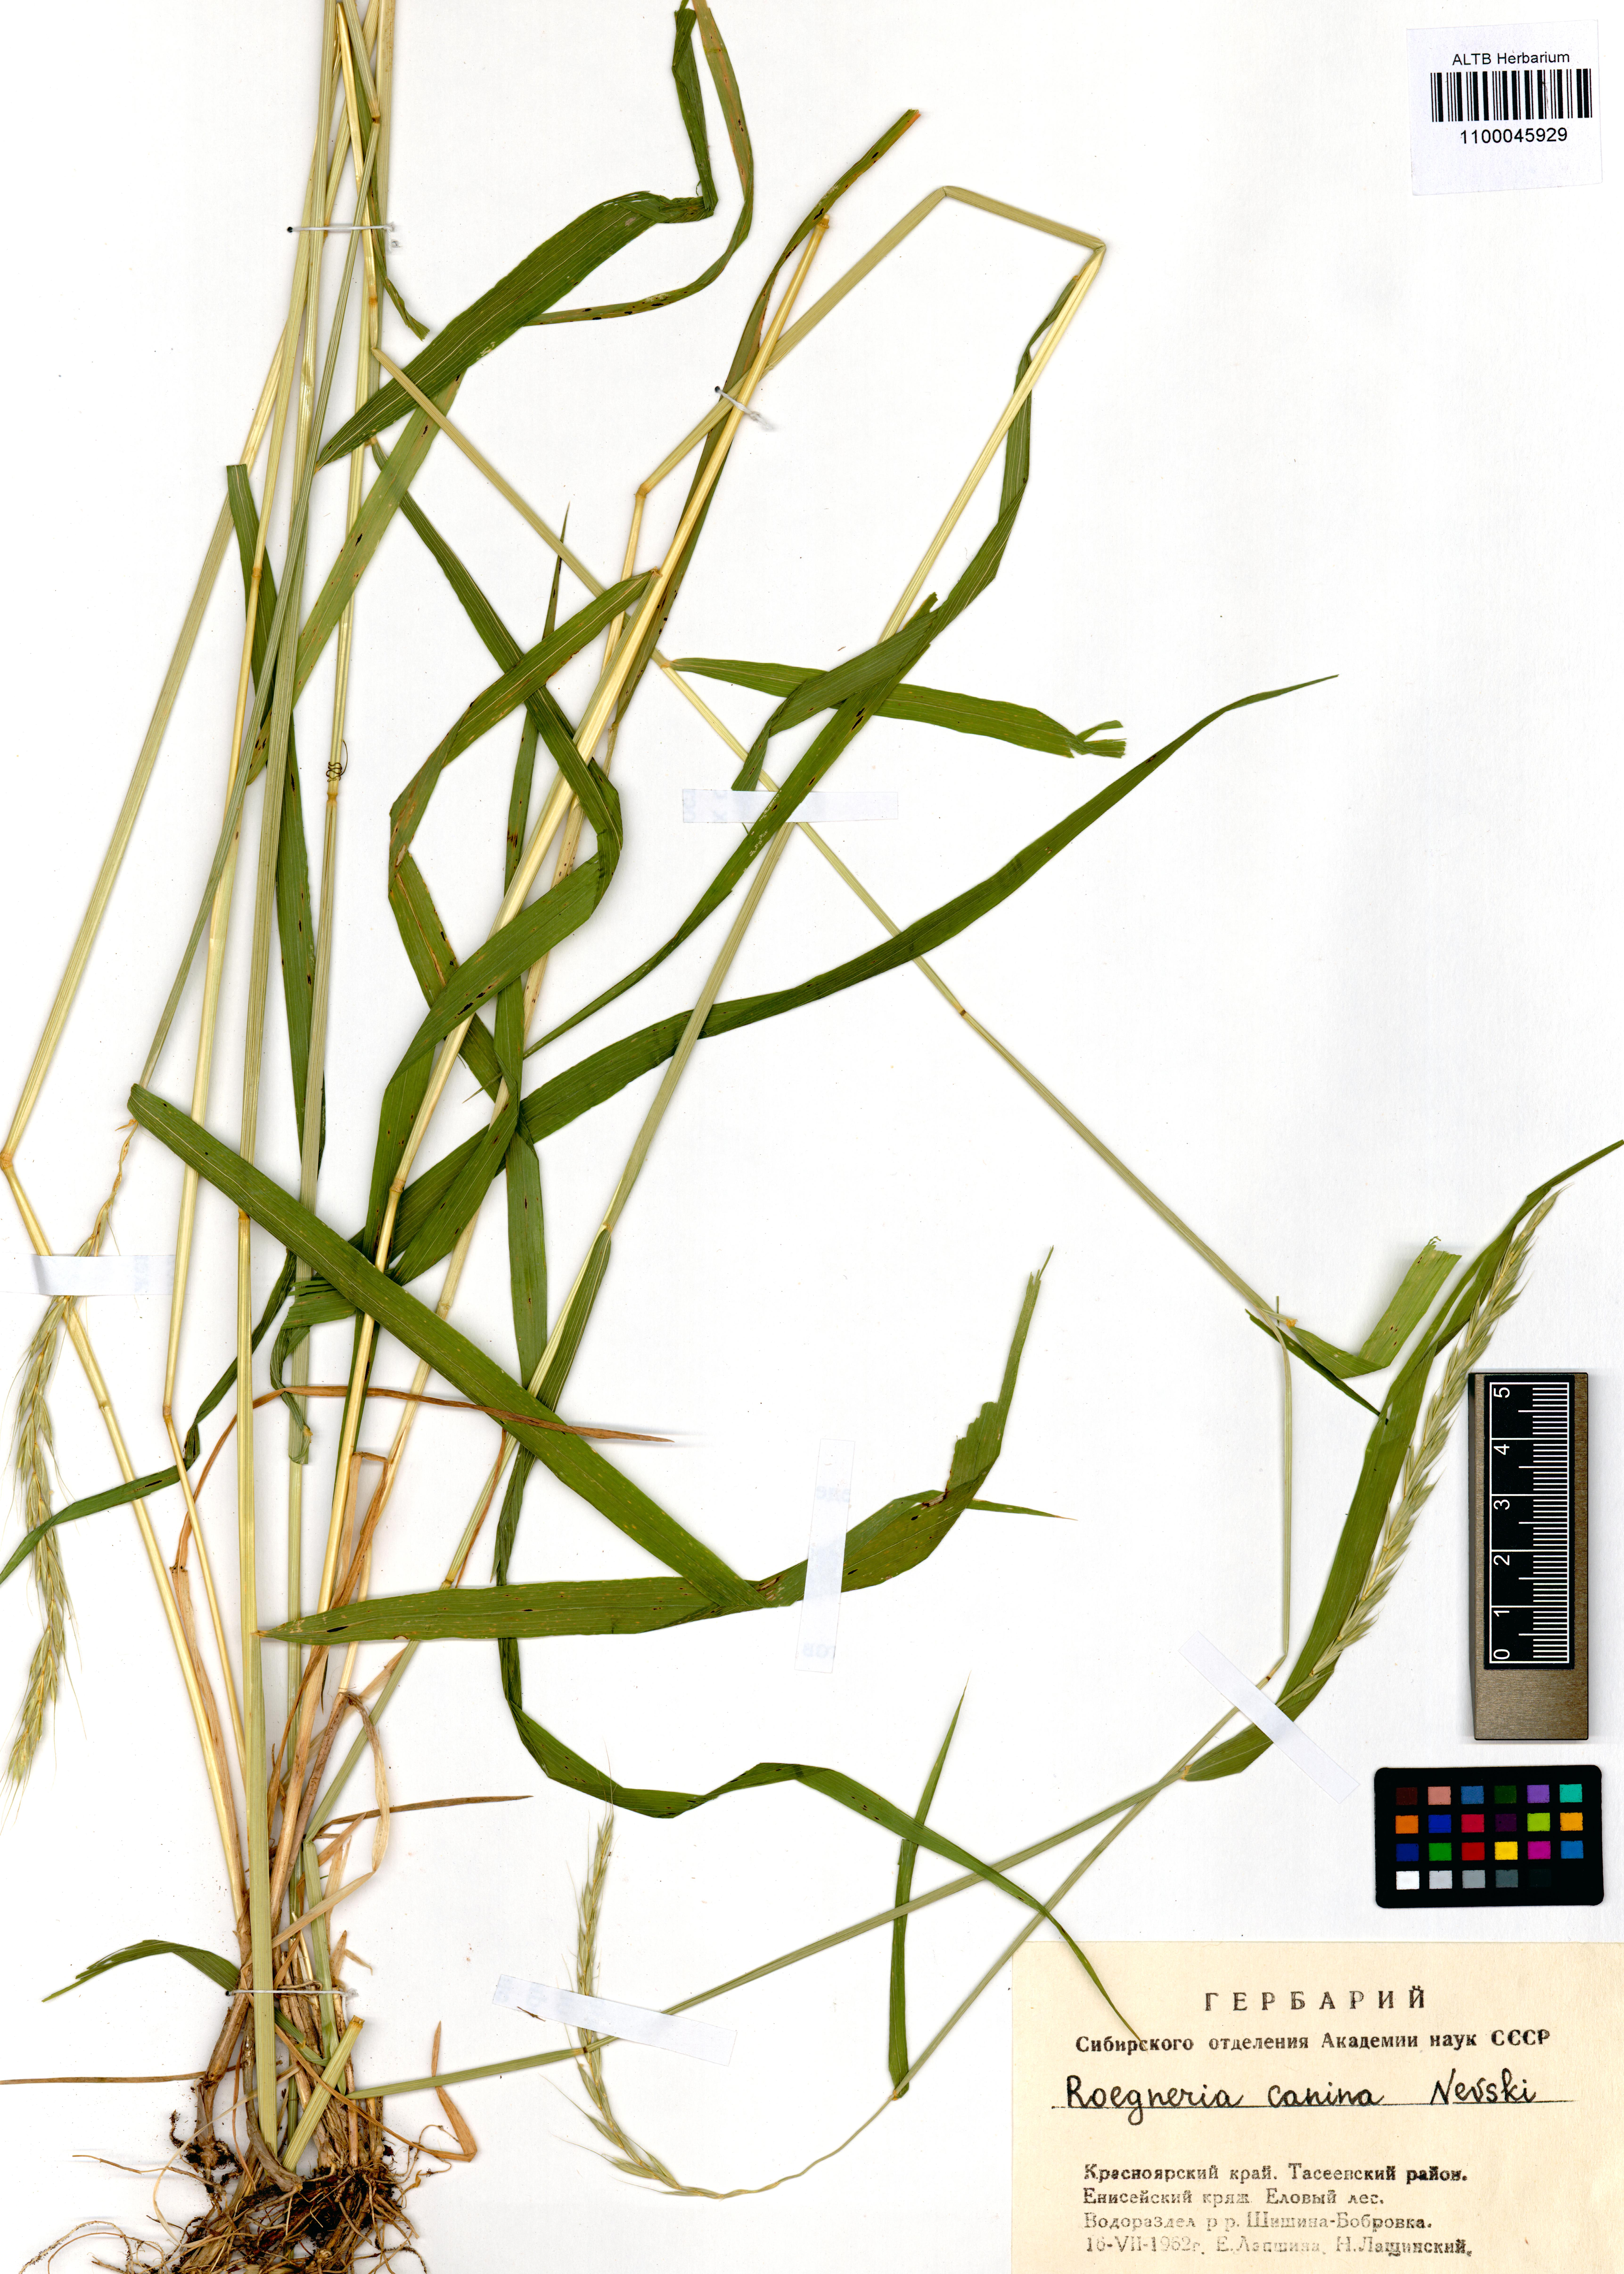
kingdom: Plantae
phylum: Tracheophyta
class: Liliopsida
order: Poales
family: Poaceae
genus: Elymus
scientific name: Elymus caninus
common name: Bearded couch
